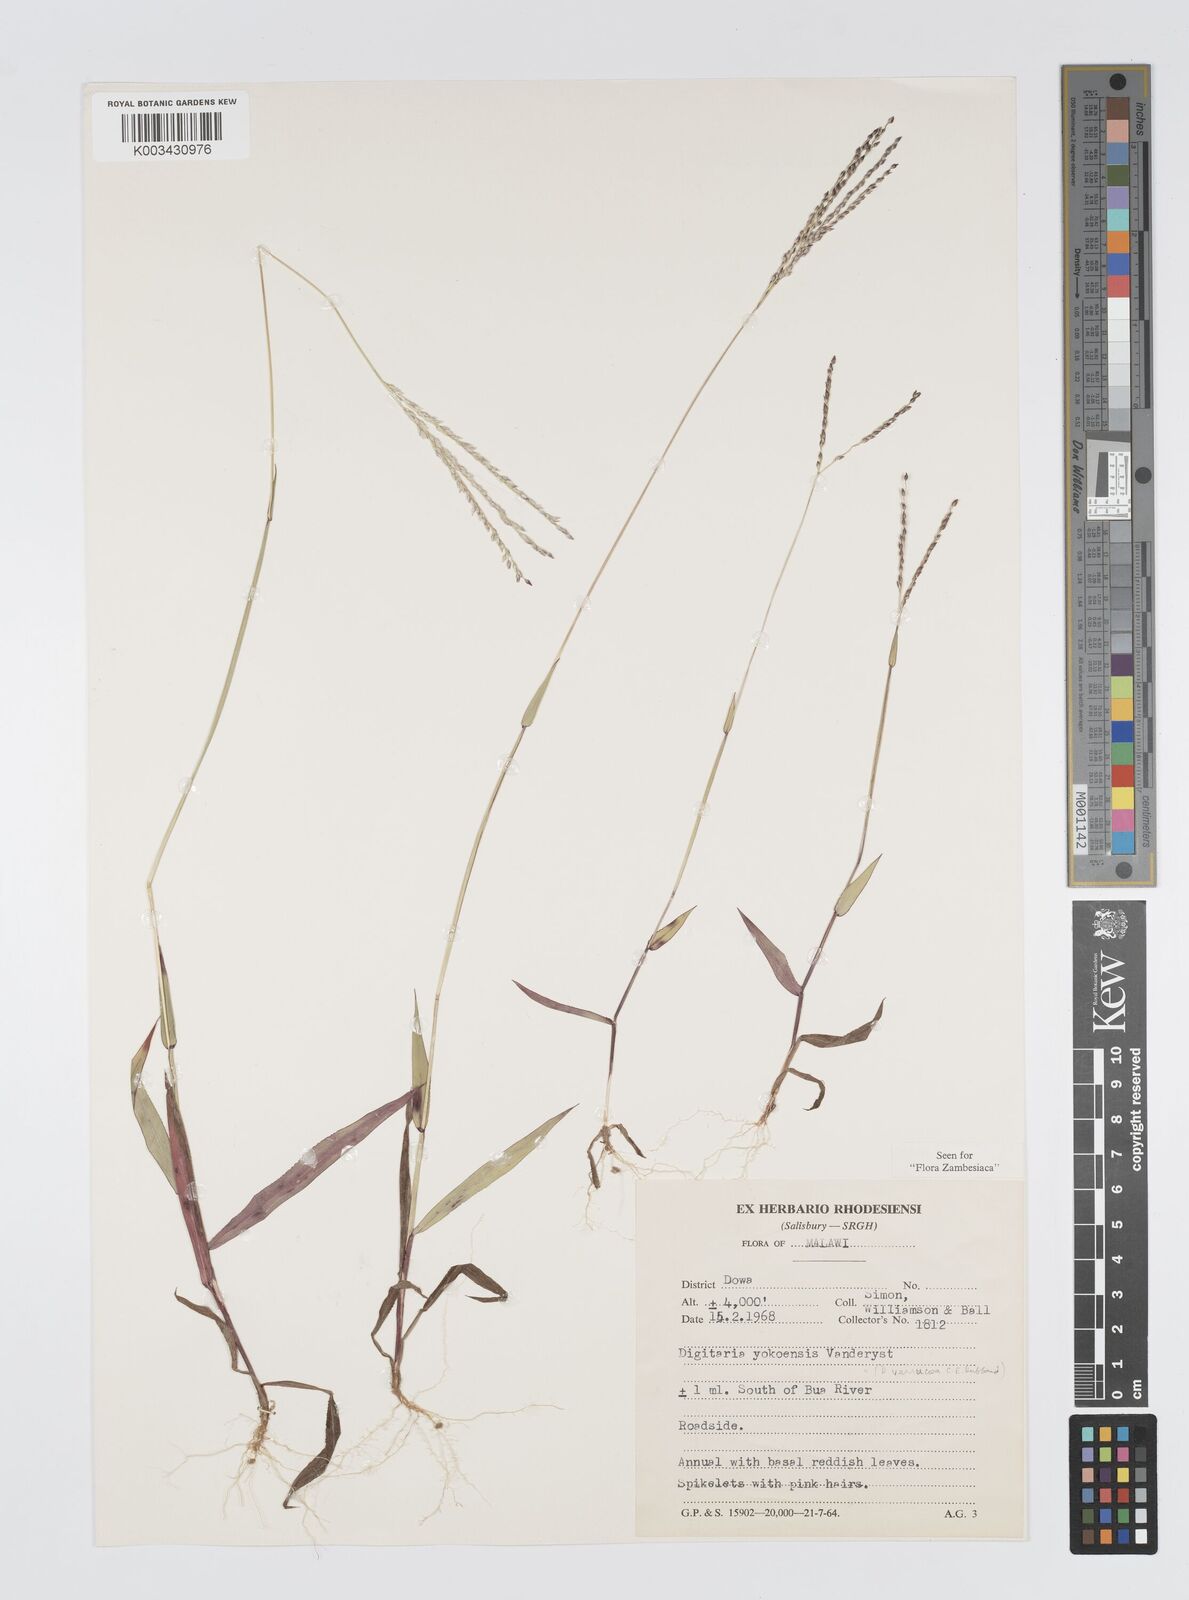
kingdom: Plantae
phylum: Tracheophyta
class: Liliopsida
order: Poales
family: Poaceae
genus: Digitaria
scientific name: Digitaria angolensis
